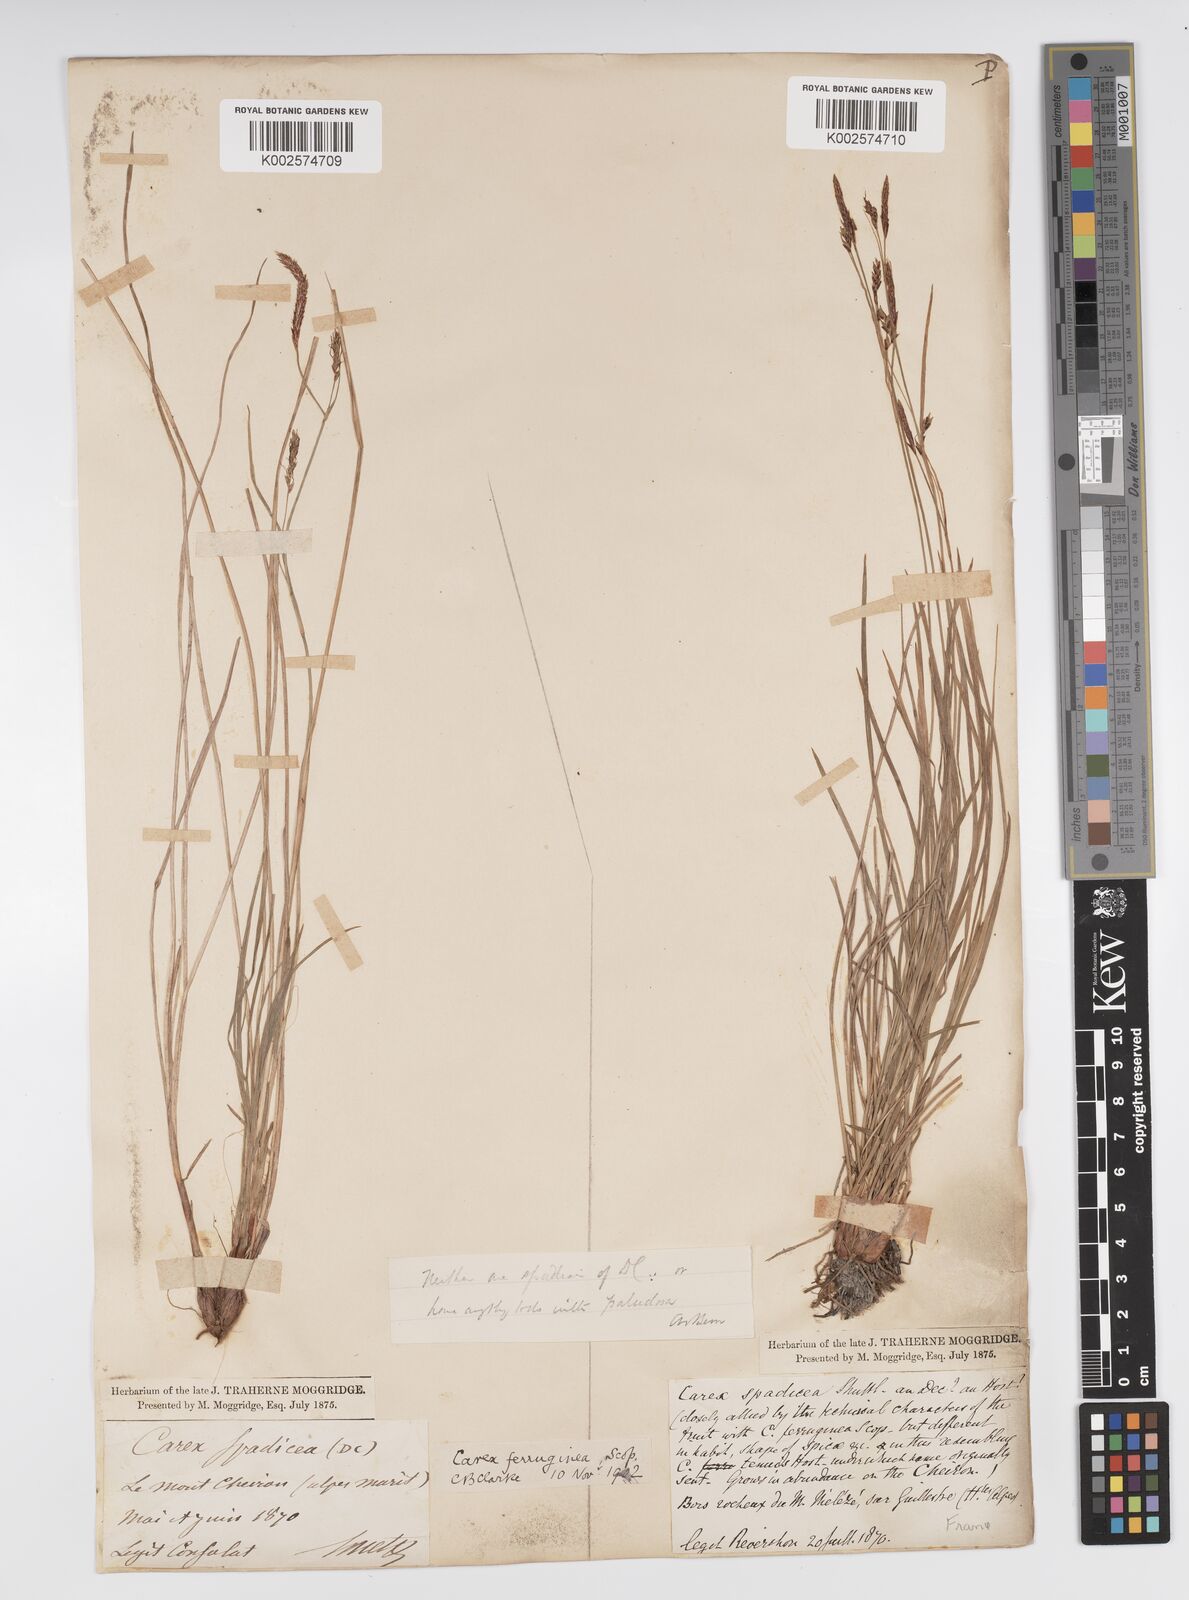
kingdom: Plantae
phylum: Tracheophyta
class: Liliopsida
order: Poales
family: Cyperaceae
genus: Carex
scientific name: Carex ferruginea
